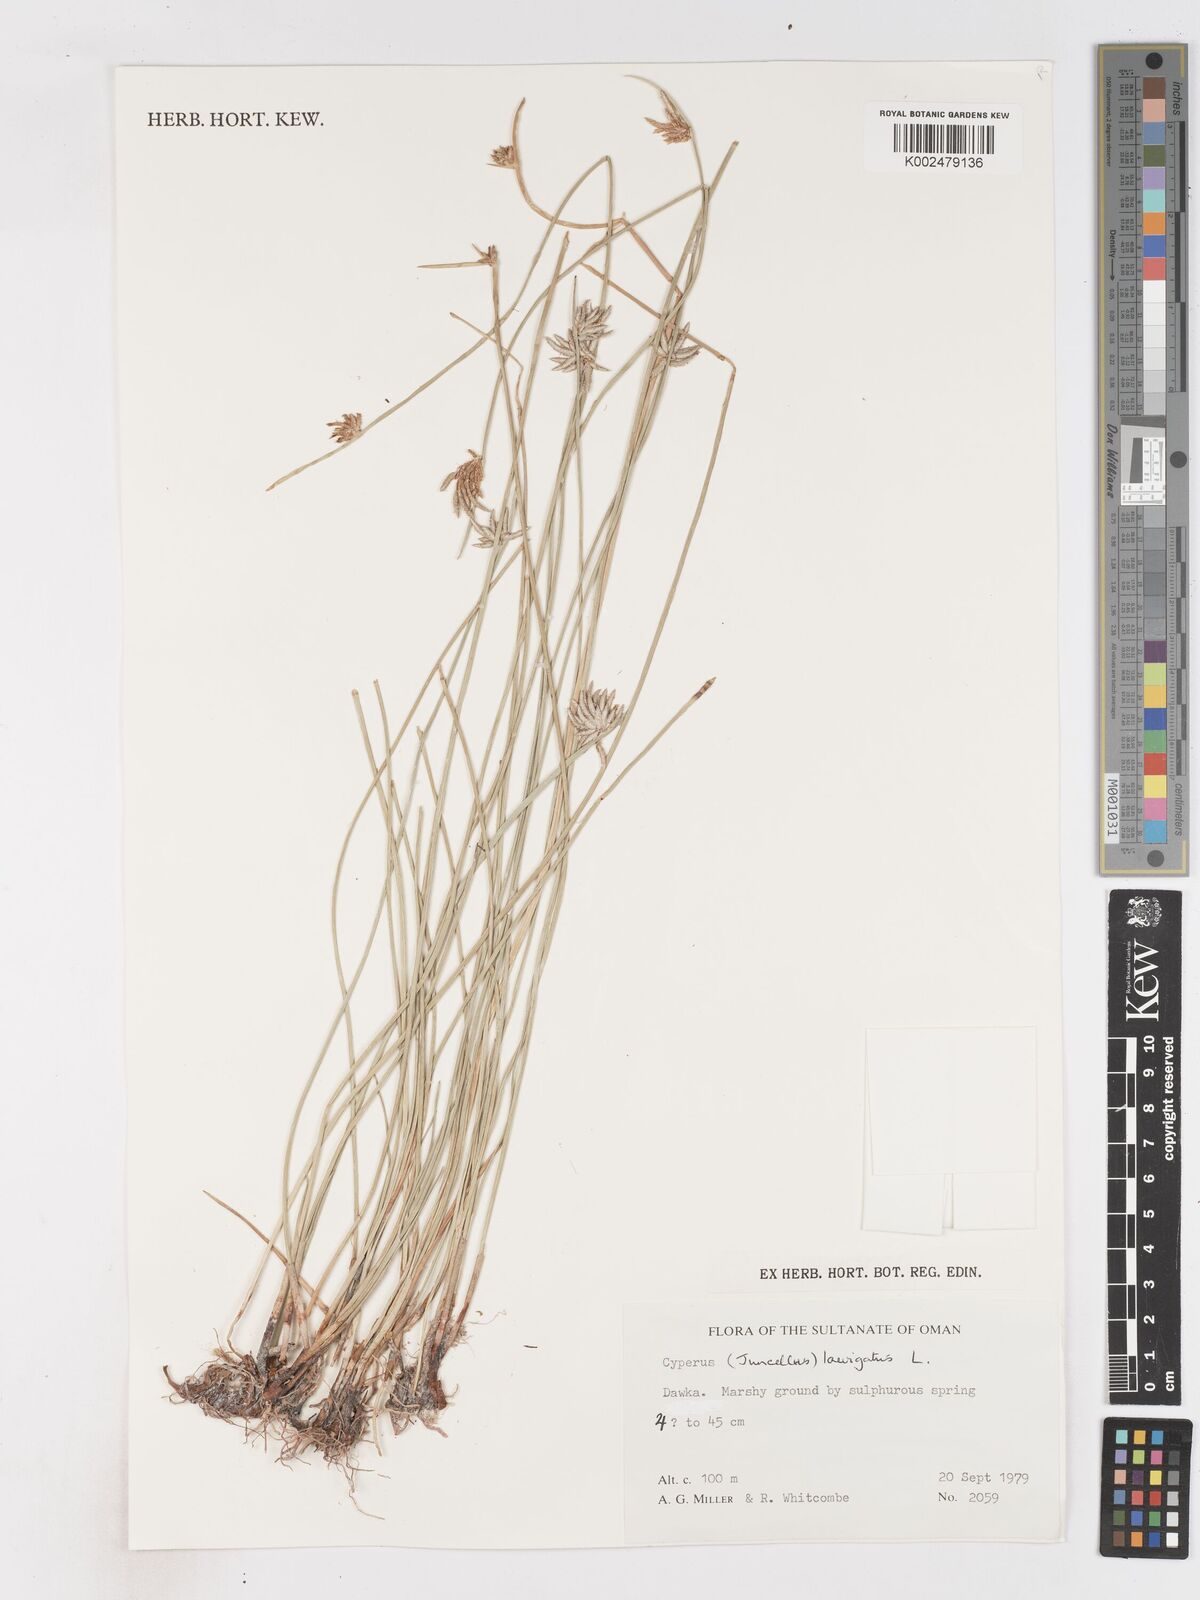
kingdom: Plantae
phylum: Tracheophyta
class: Liliopsida
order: Poales
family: Cyperaceae
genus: Cyperus
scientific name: Cyperus laevigatus
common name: Smooth flat sedge
